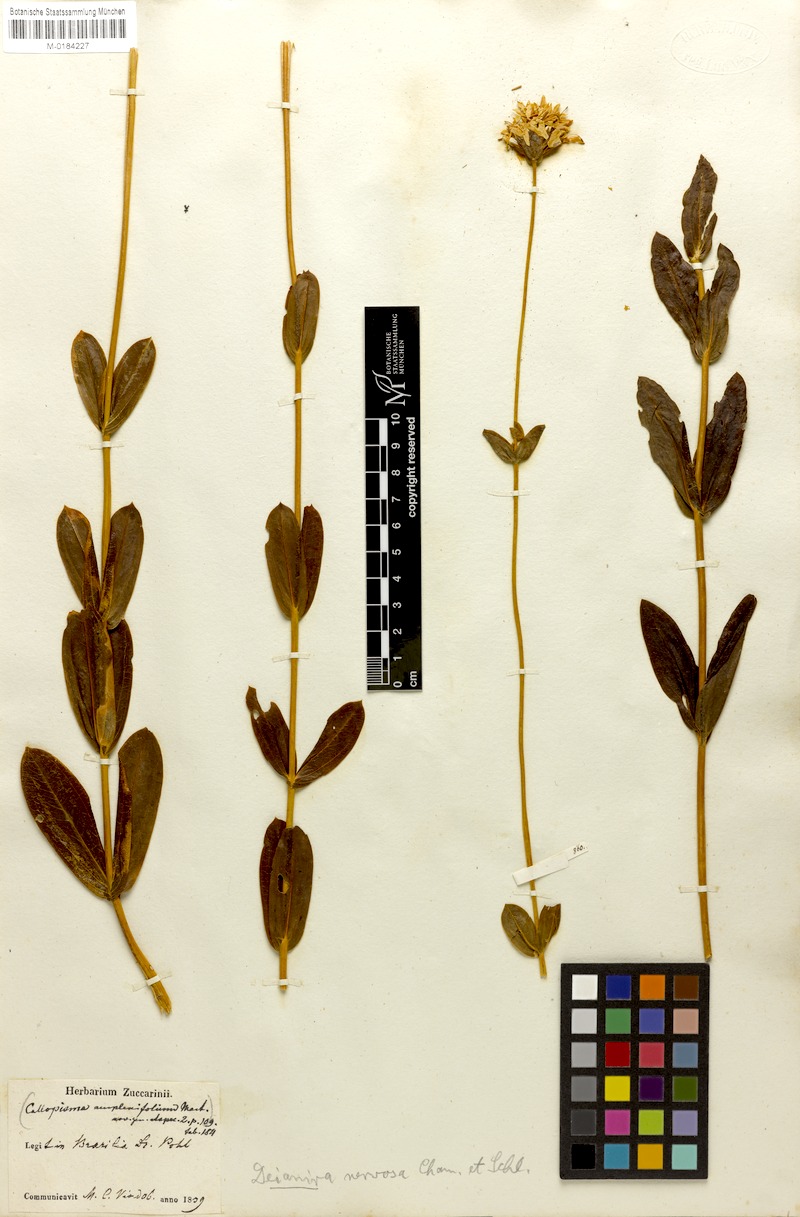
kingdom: Plantae
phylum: Tracheophyta
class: Magnoliopsida
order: Gentianales
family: Gentianaceae
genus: Deianira
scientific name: Deianira nervosa
